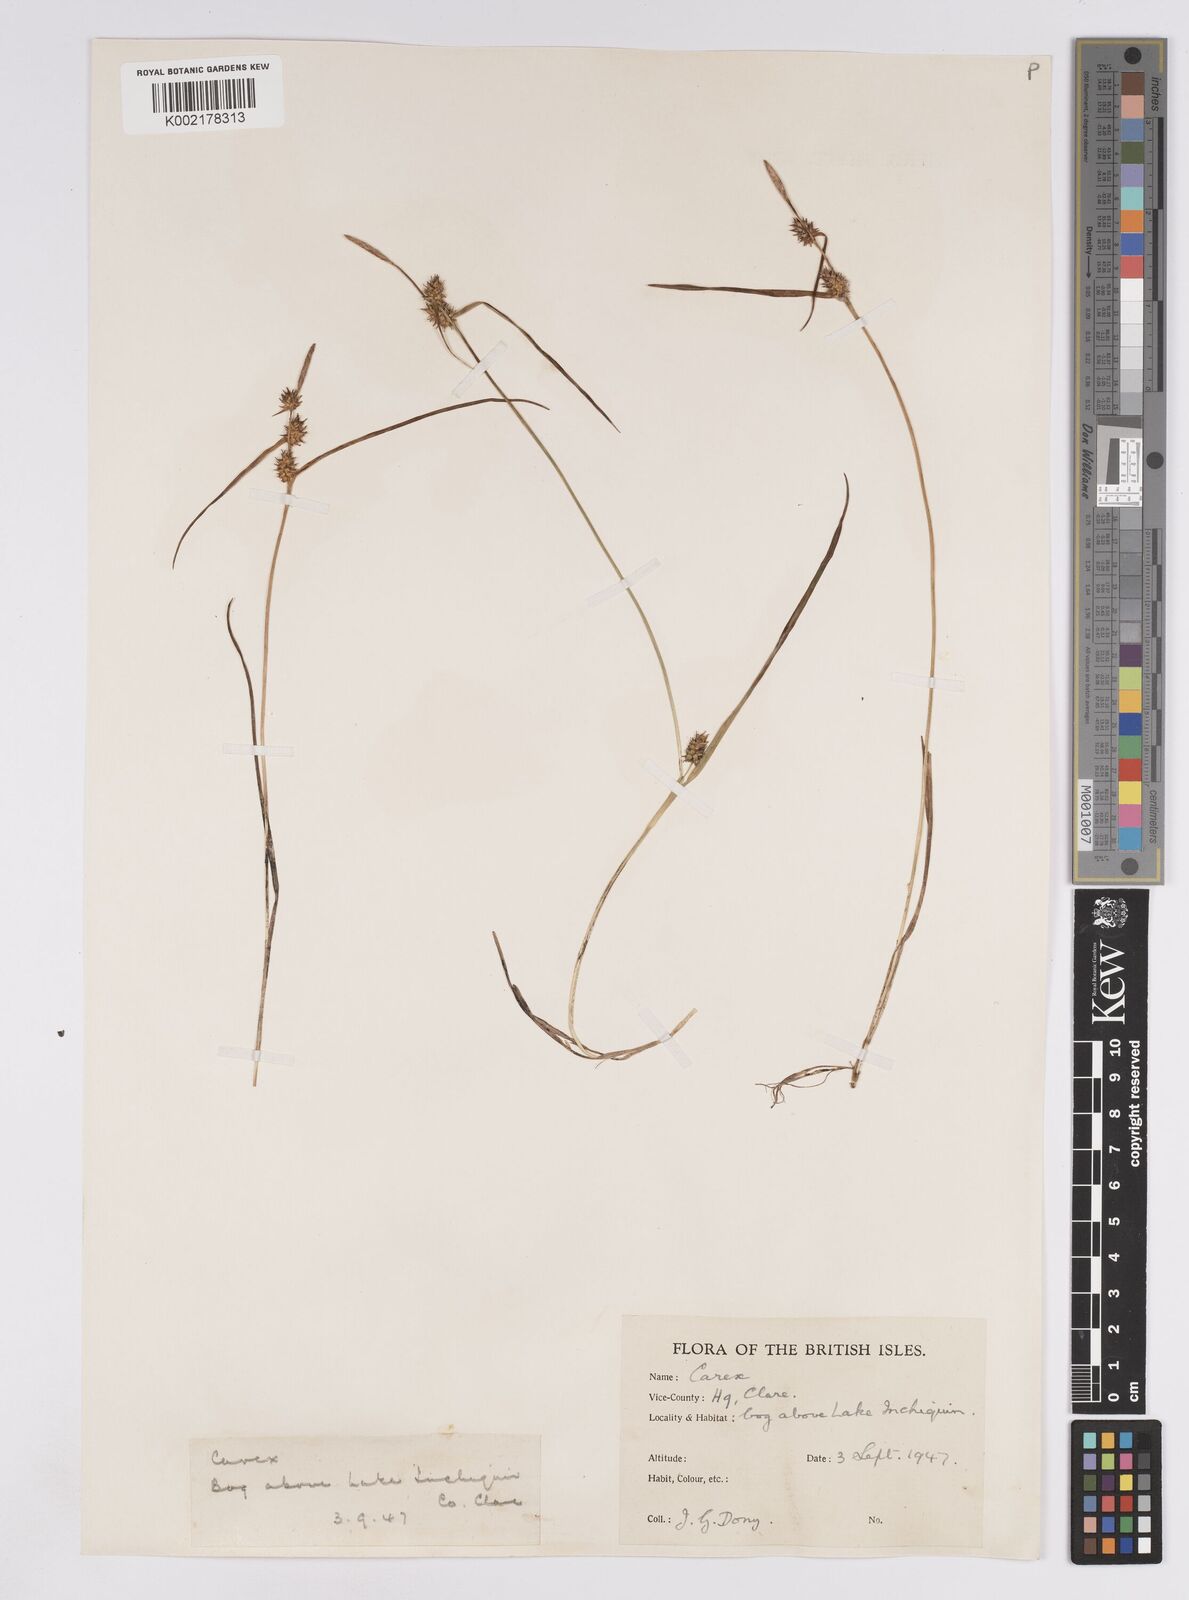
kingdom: Plantae
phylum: Tracheophyta
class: Liliopsida
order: Poales
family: Cyperaceae
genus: Carex
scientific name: Carex demissa
